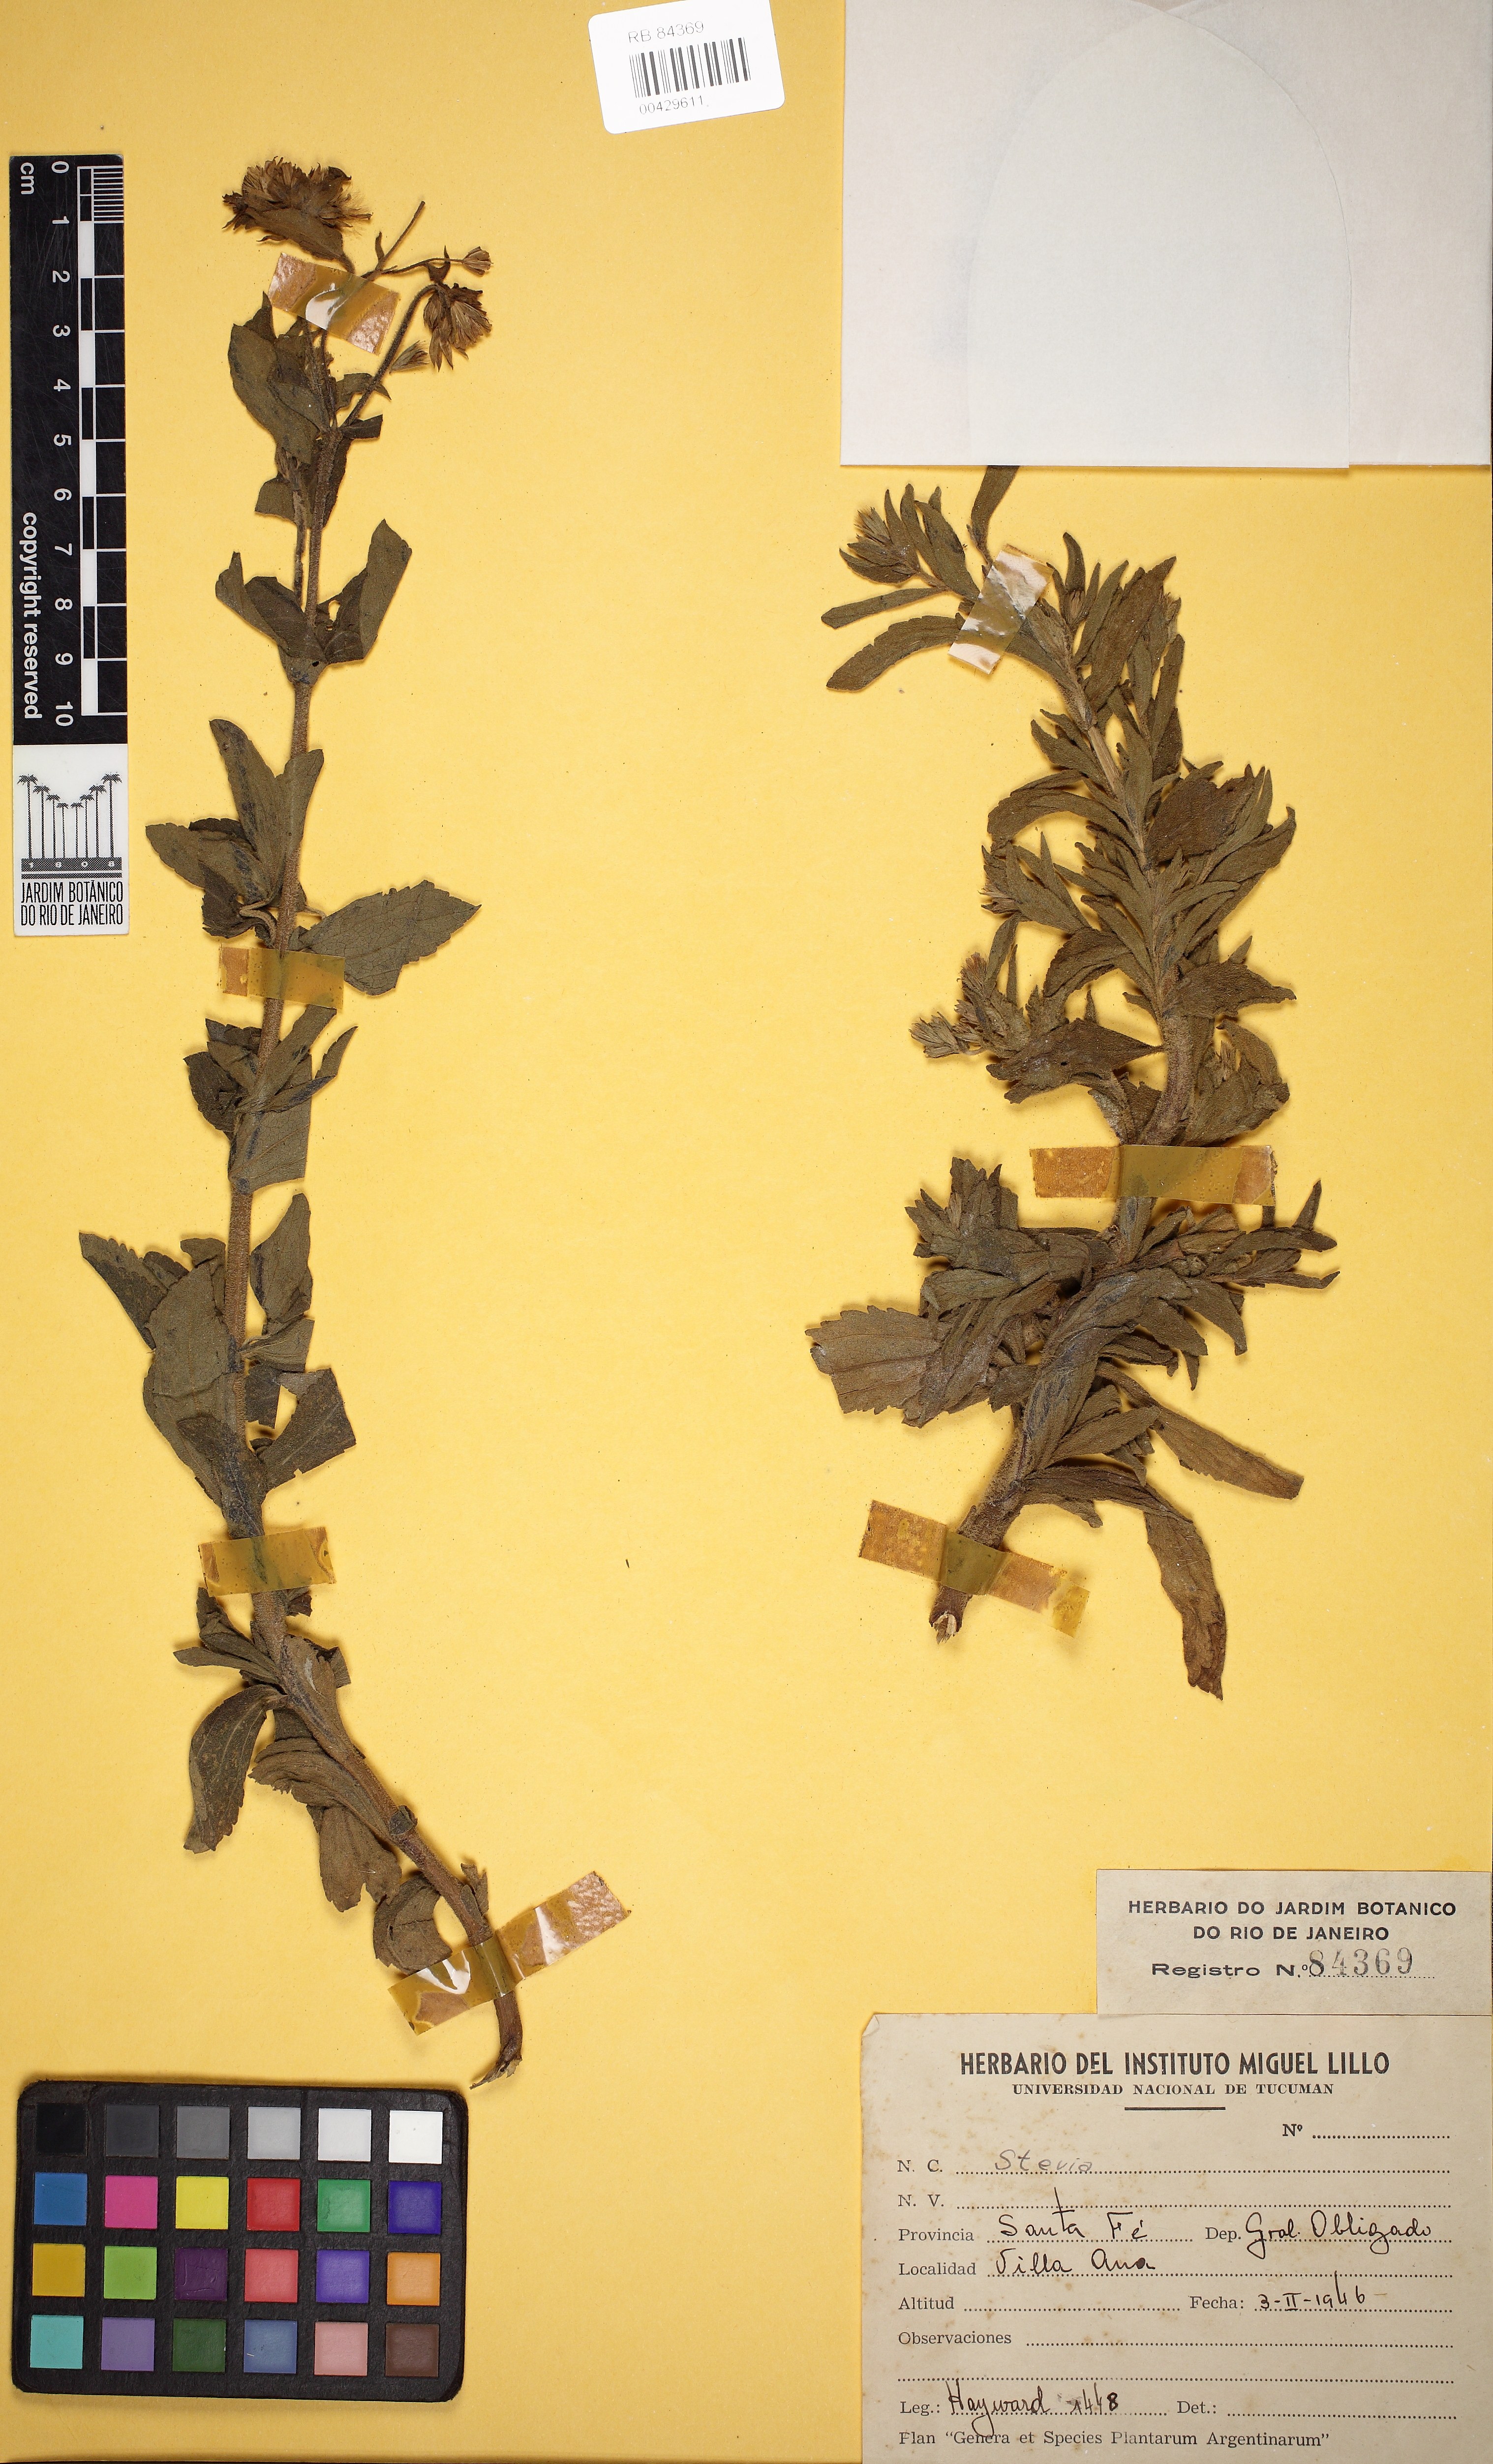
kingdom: Plantae
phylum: Tracheophyta
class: Magnoliopsida
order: Asterales
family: Asteraceae
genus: Stevia
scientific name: Stevia
